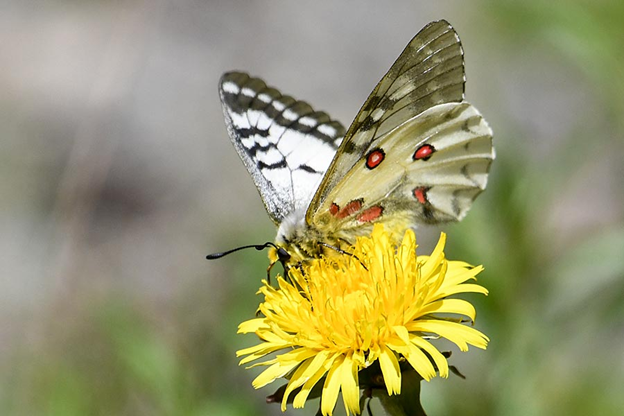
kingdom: Animalia
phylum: Arthropoda
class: Insecta
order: Lepidoptera
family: Papilionidae
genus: Parnassius
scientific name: Parnassius clodius
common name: Clodius Parnassian
